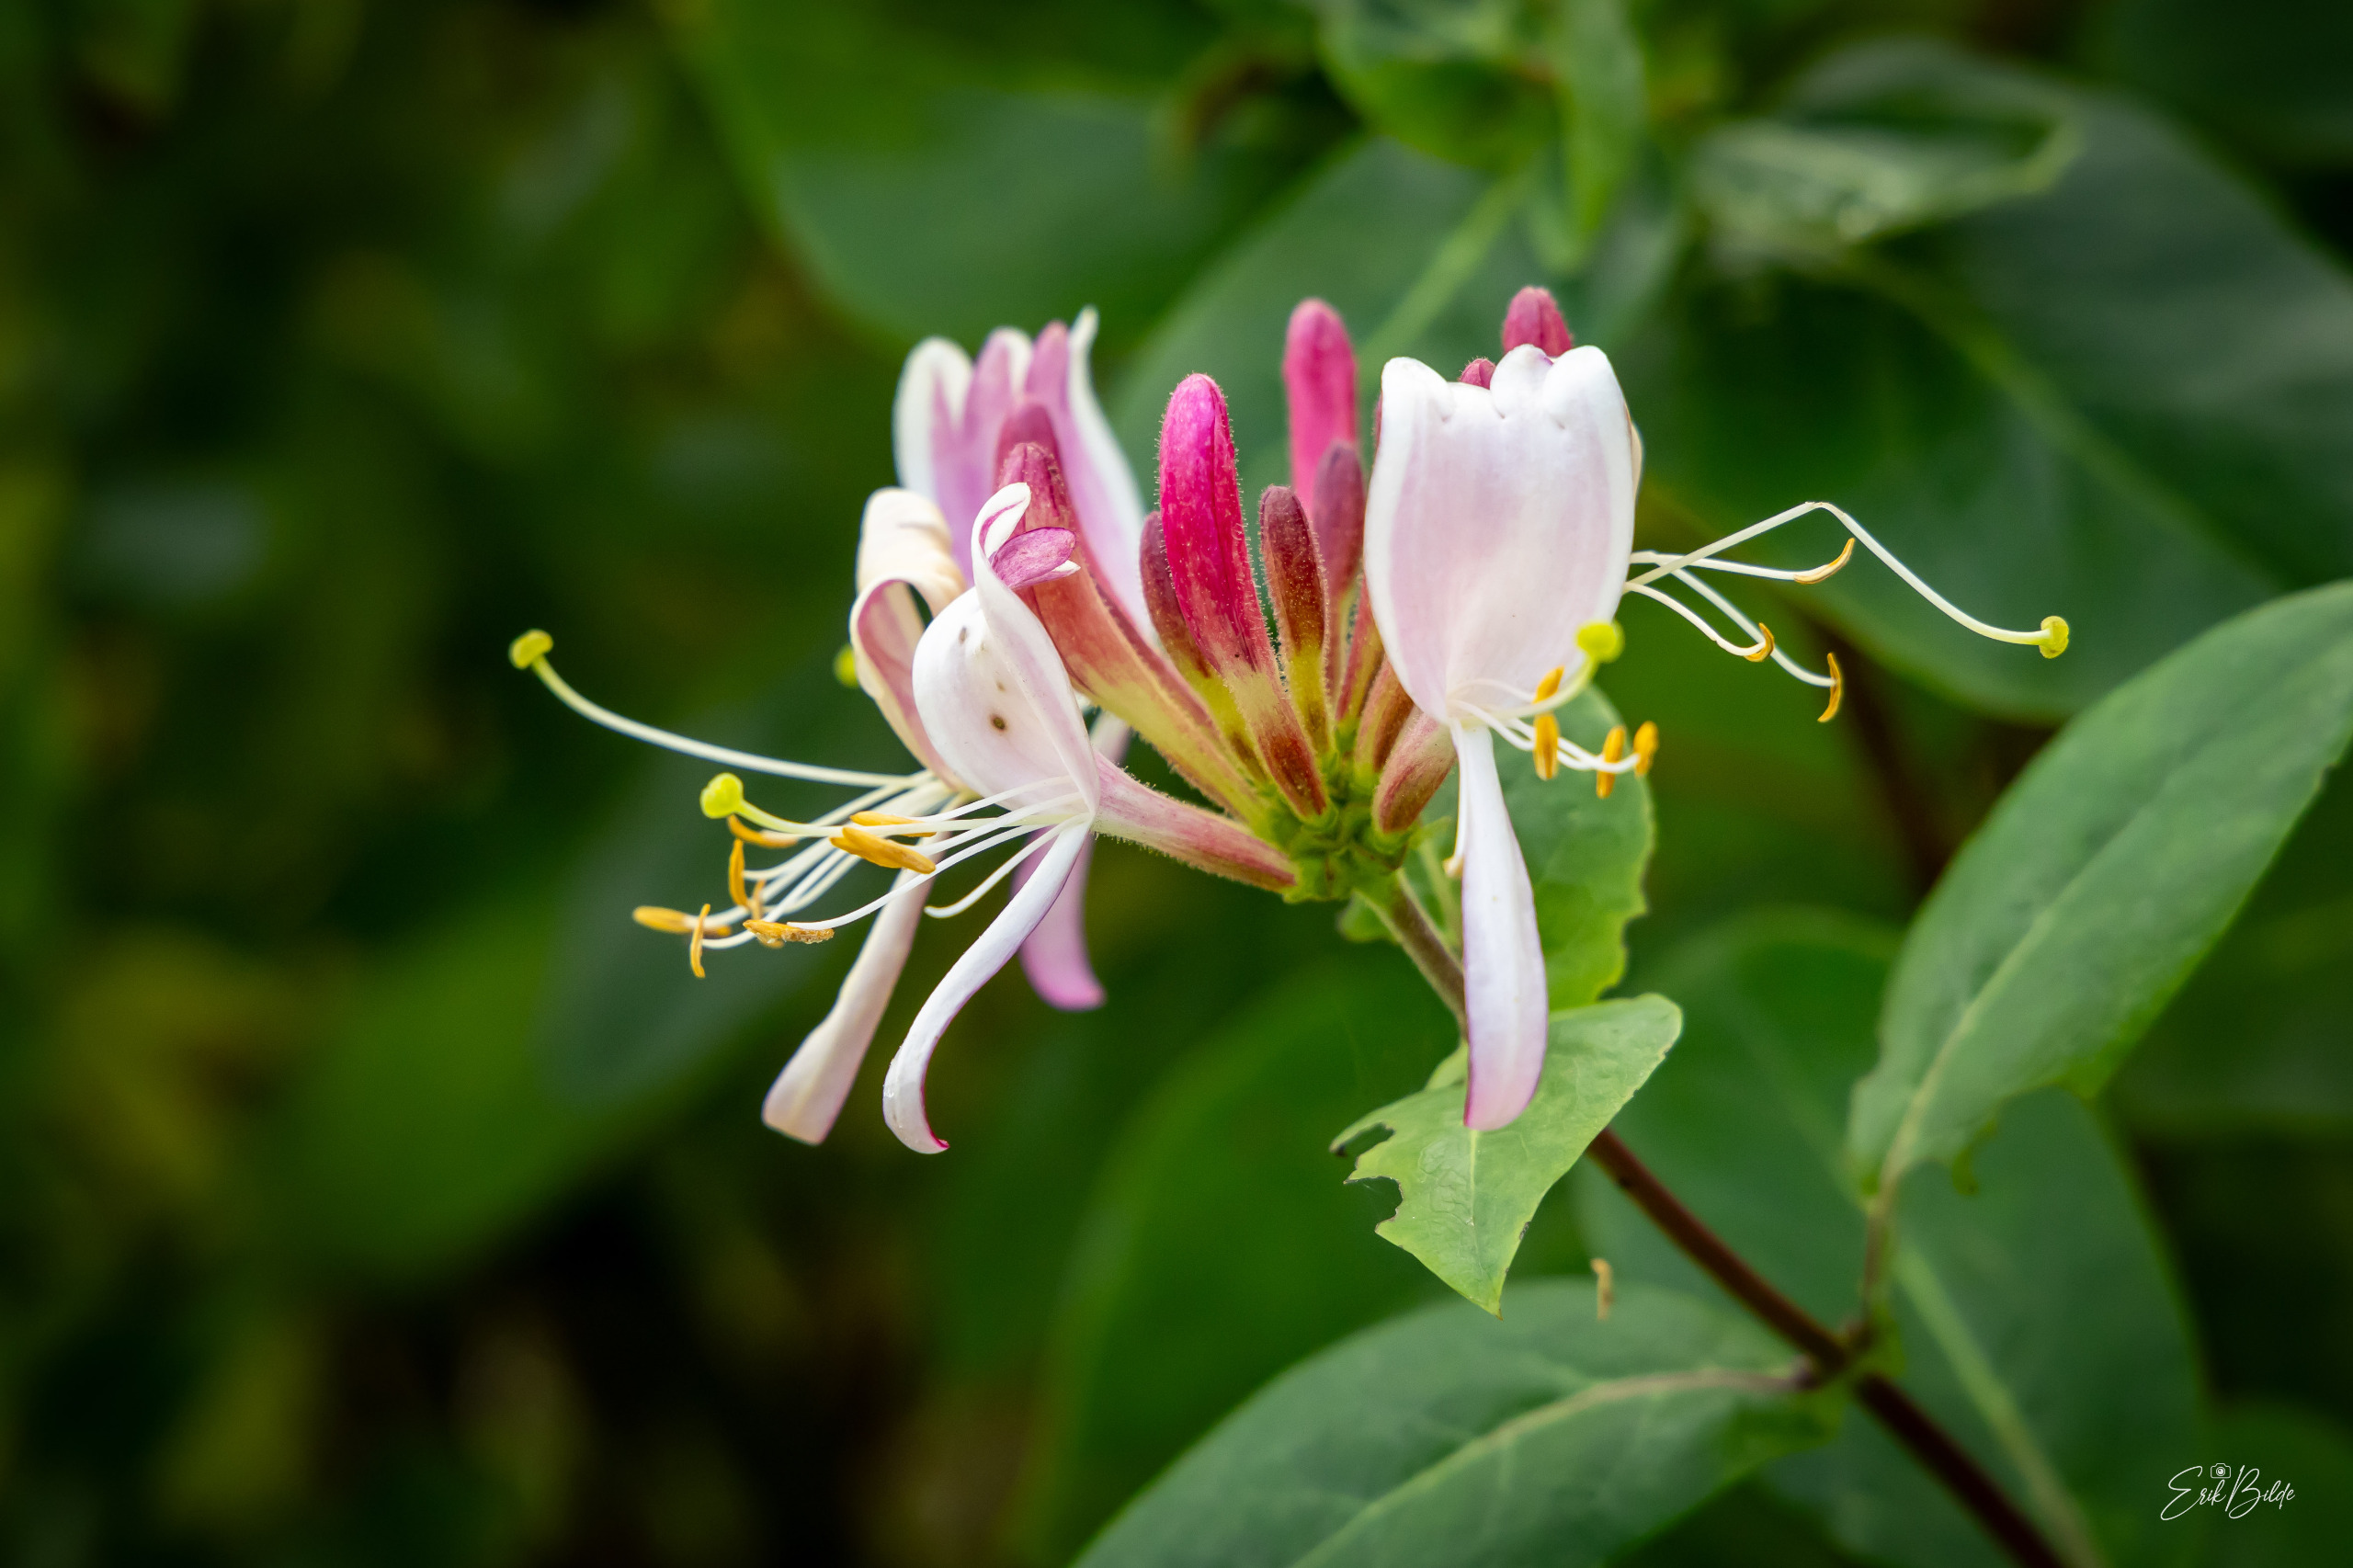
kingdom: Plantae
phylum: Tracheophyta
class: Magnoliopsida
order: Dipsacales
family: Caprifoliaceae
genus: Lonicera
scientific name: Lonicera periclymenum
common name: Almindelig gedeblad
